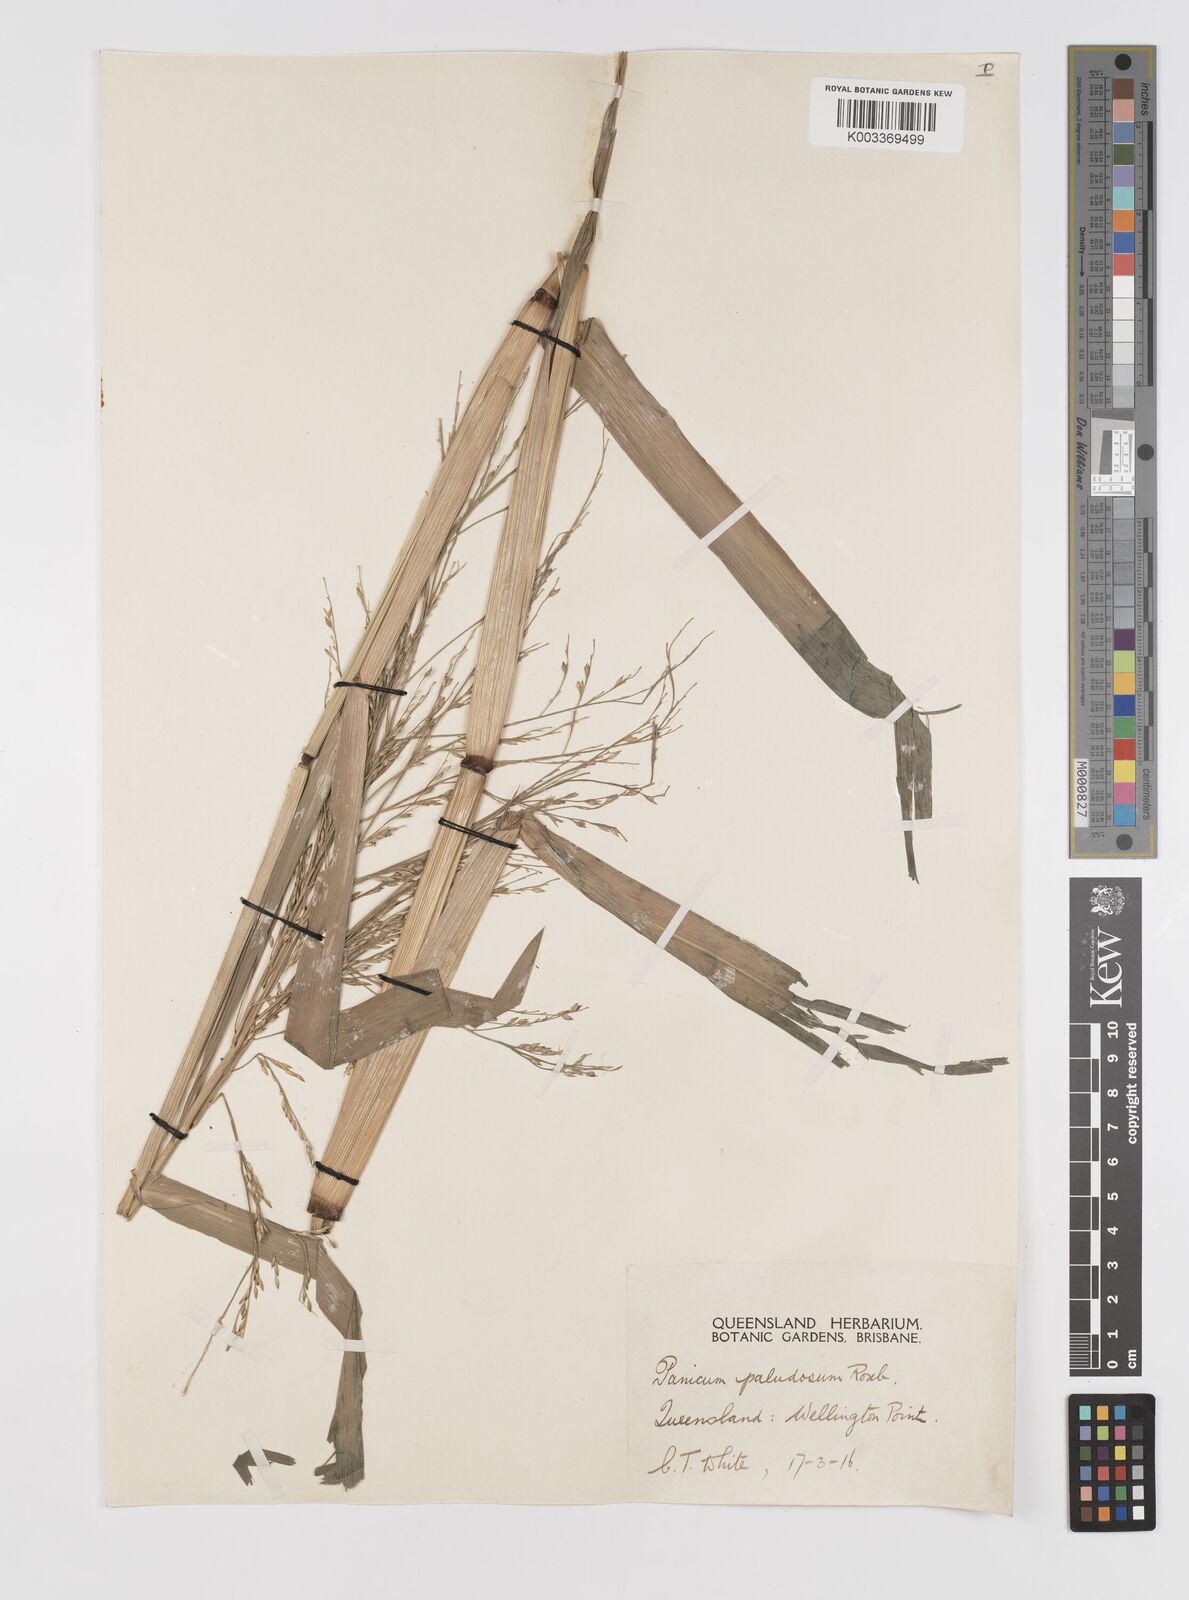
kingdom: Plantae
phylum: Tracheophyta
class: Liliopsida
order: Poales
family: Poaceae
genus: Louisiella
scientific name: Louisiella paludosa
